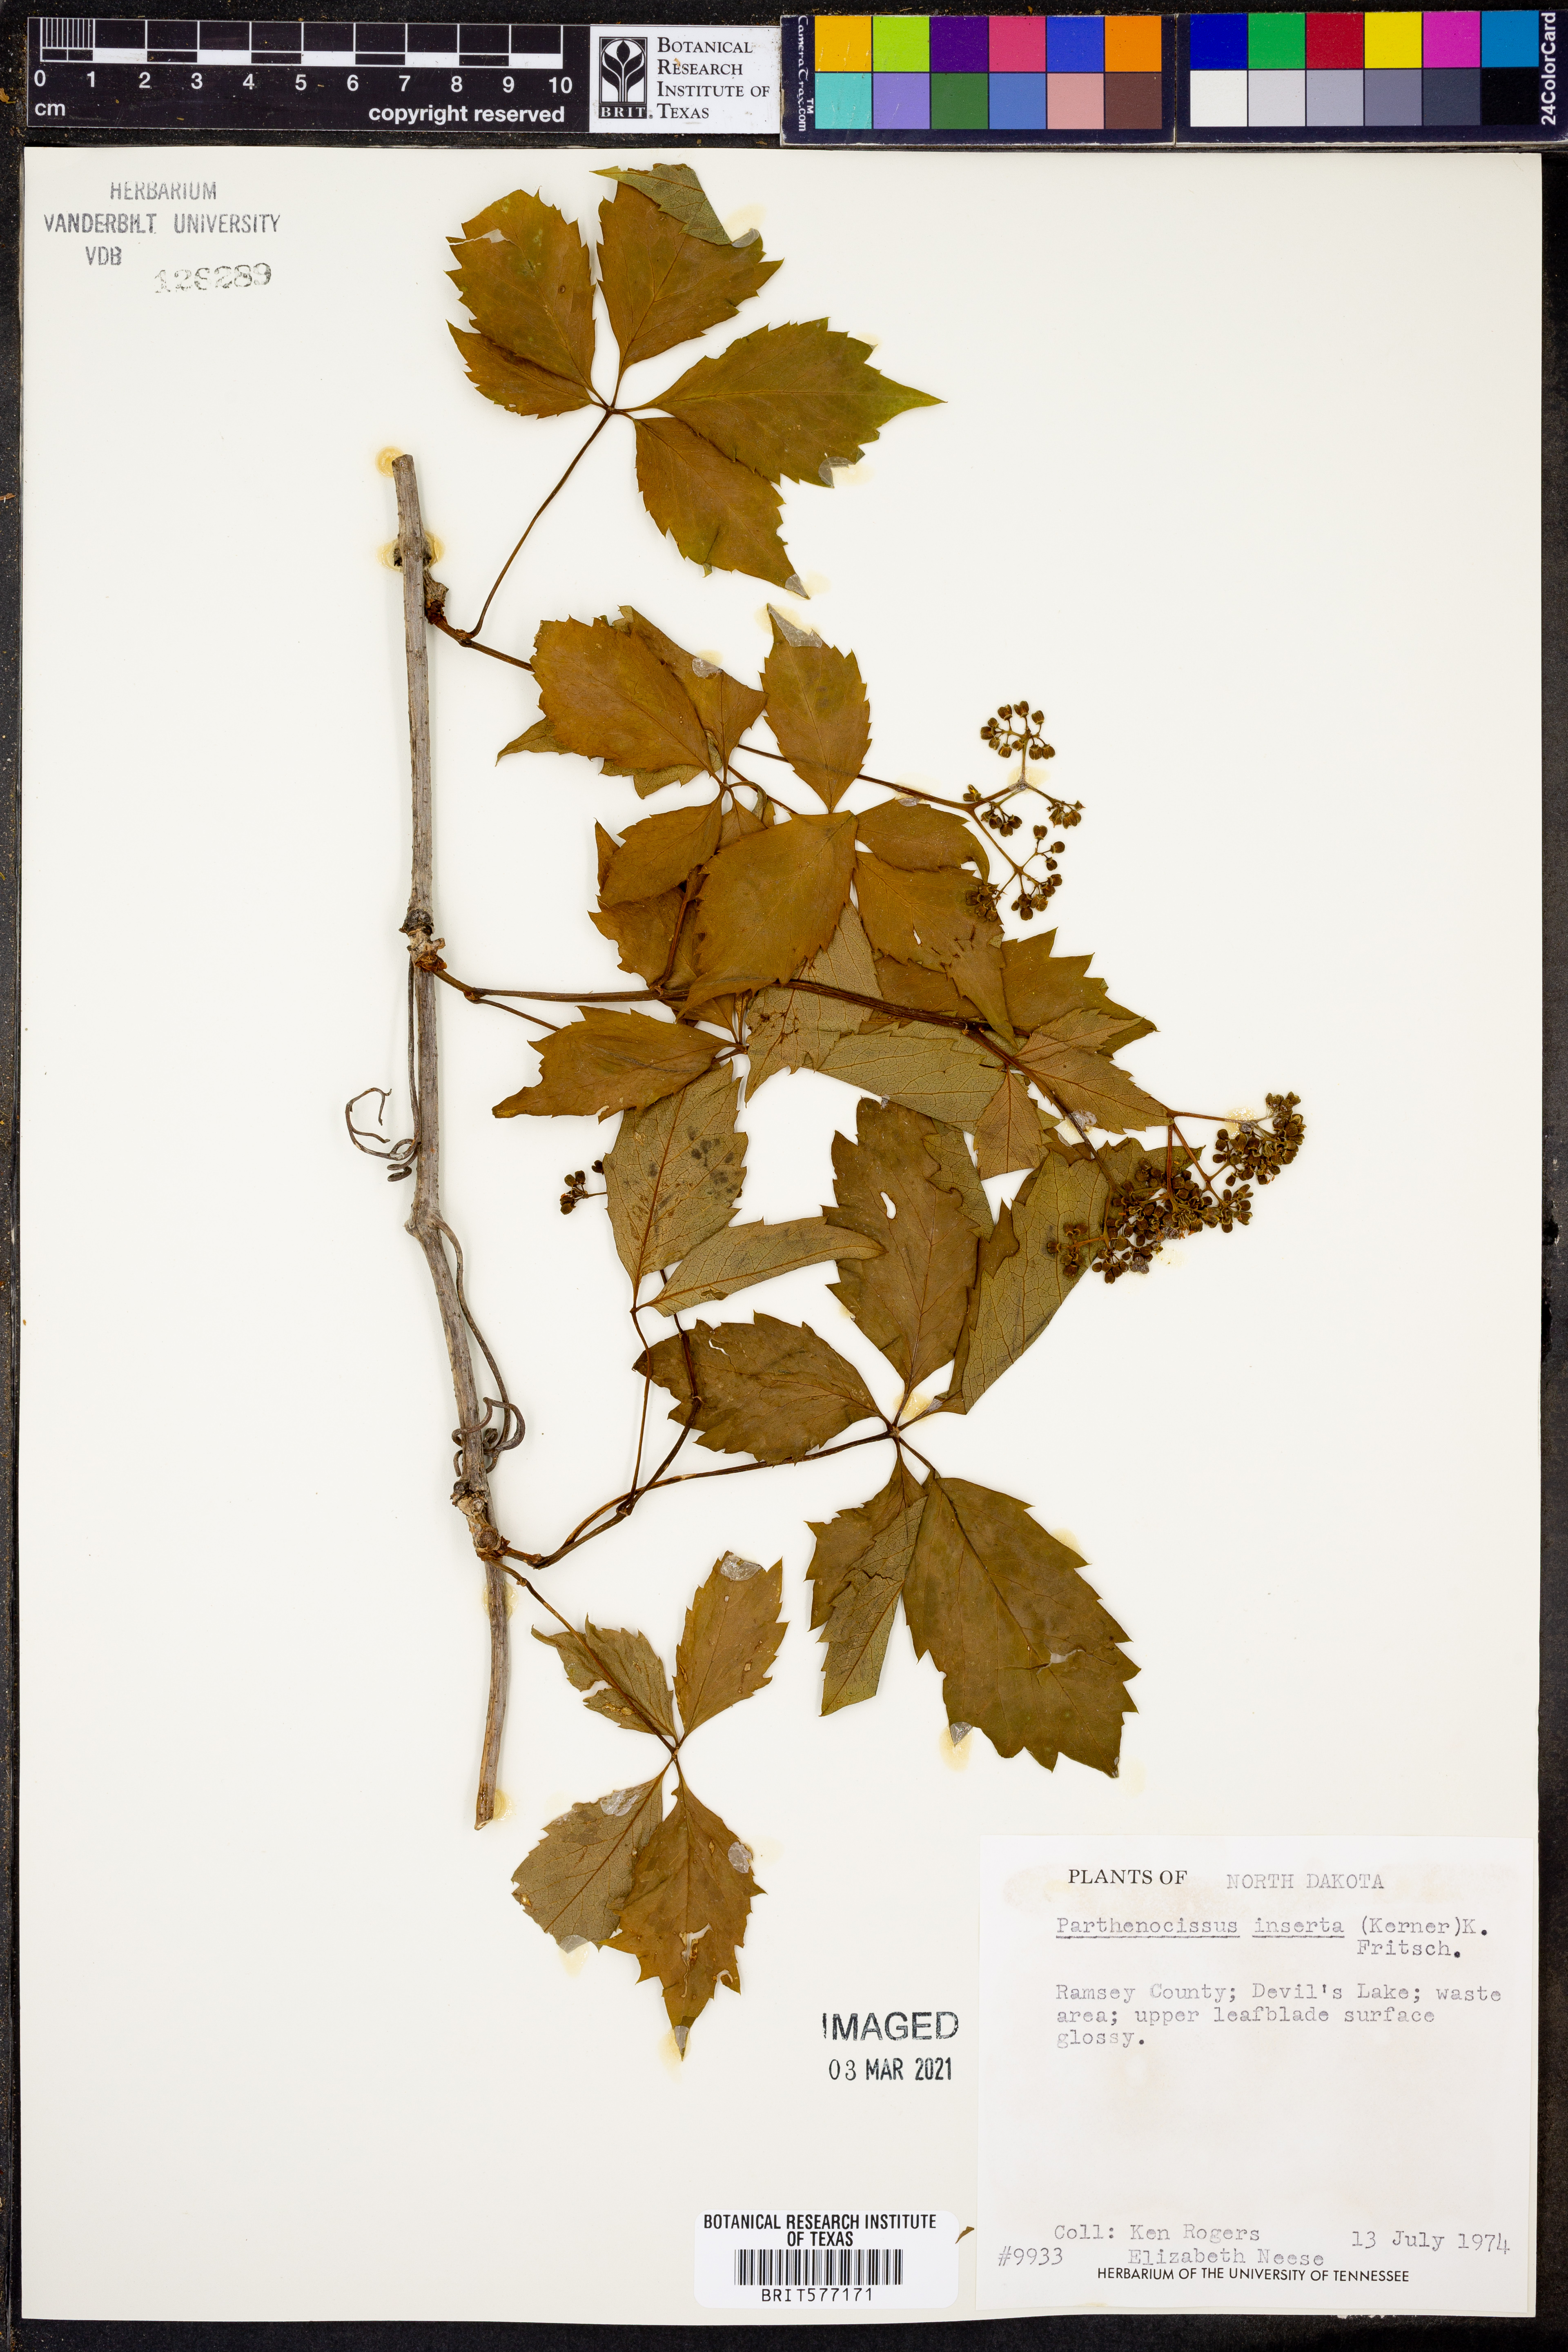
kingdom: Plantae
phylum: Tracheophyta
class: Magnoliopsida
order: Vitales
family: Vitaceae
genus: Parthenocissus
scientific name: Parthenocissus inserta
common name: False virginia-creeper
